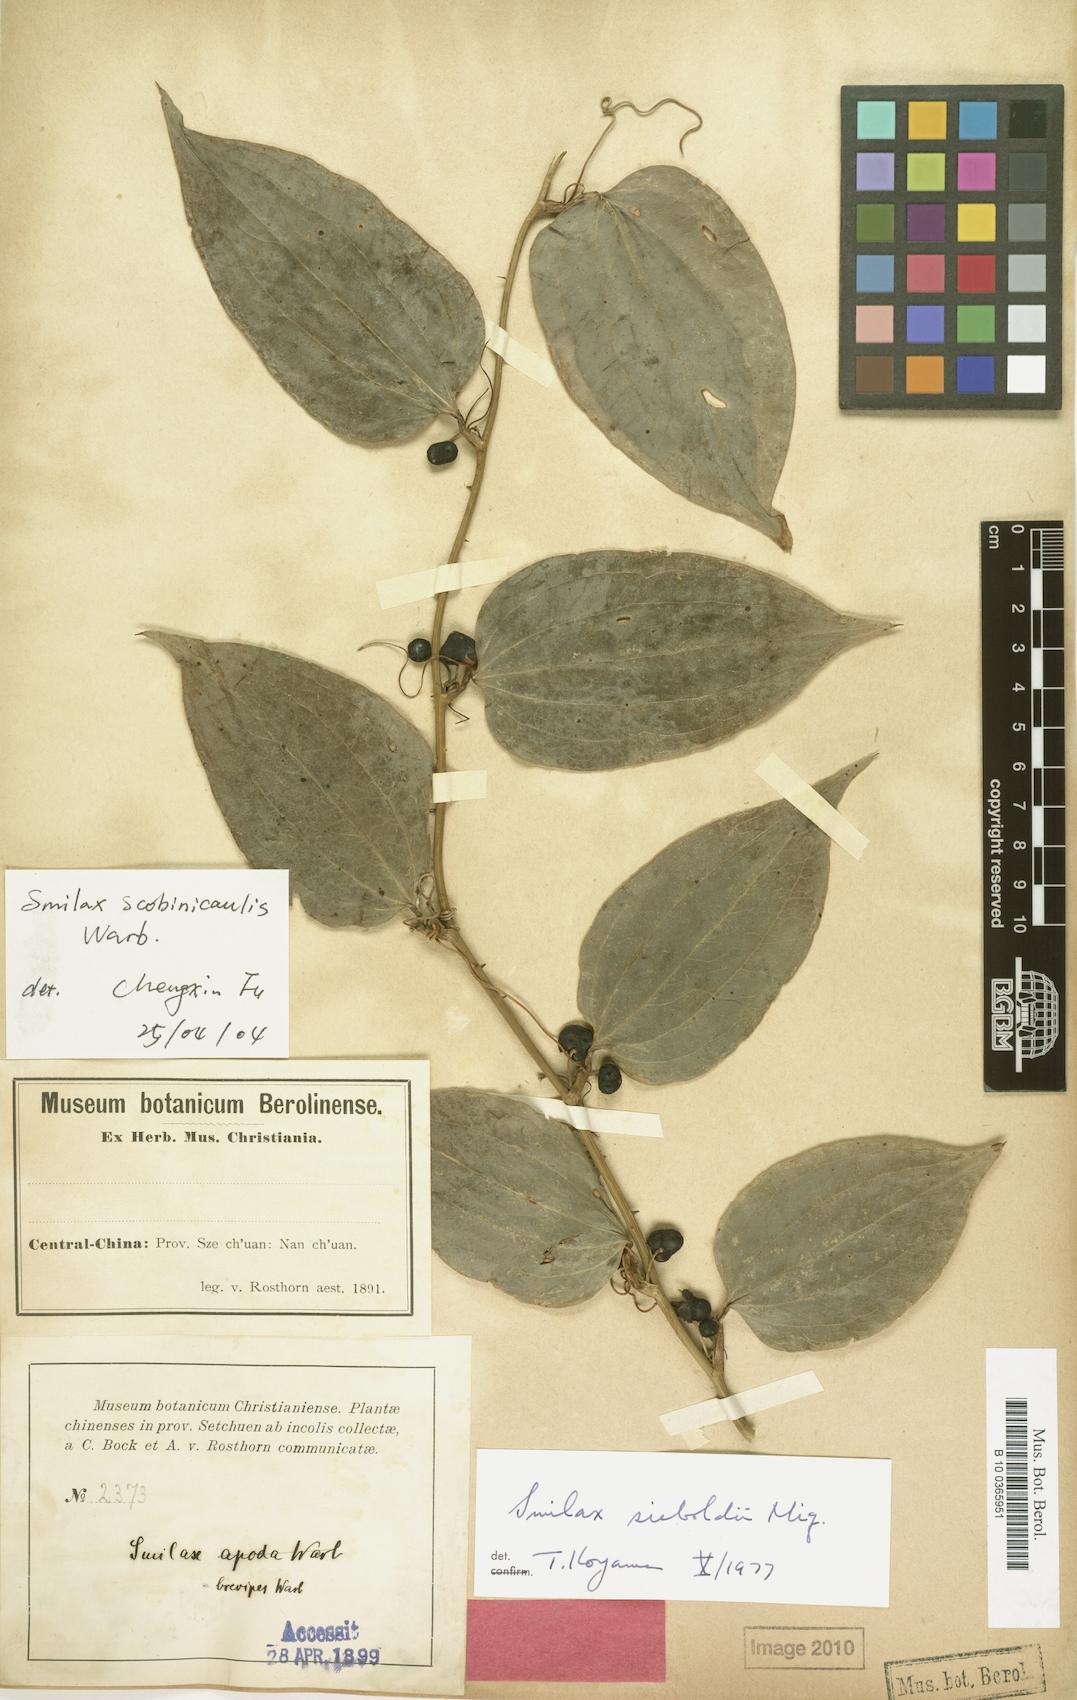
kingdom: Plantae
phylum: Tracheophyta
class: Liliopsida
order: Liliales
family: Smilacaceae
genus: Smilax
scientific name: Smilax scobinicaulis
